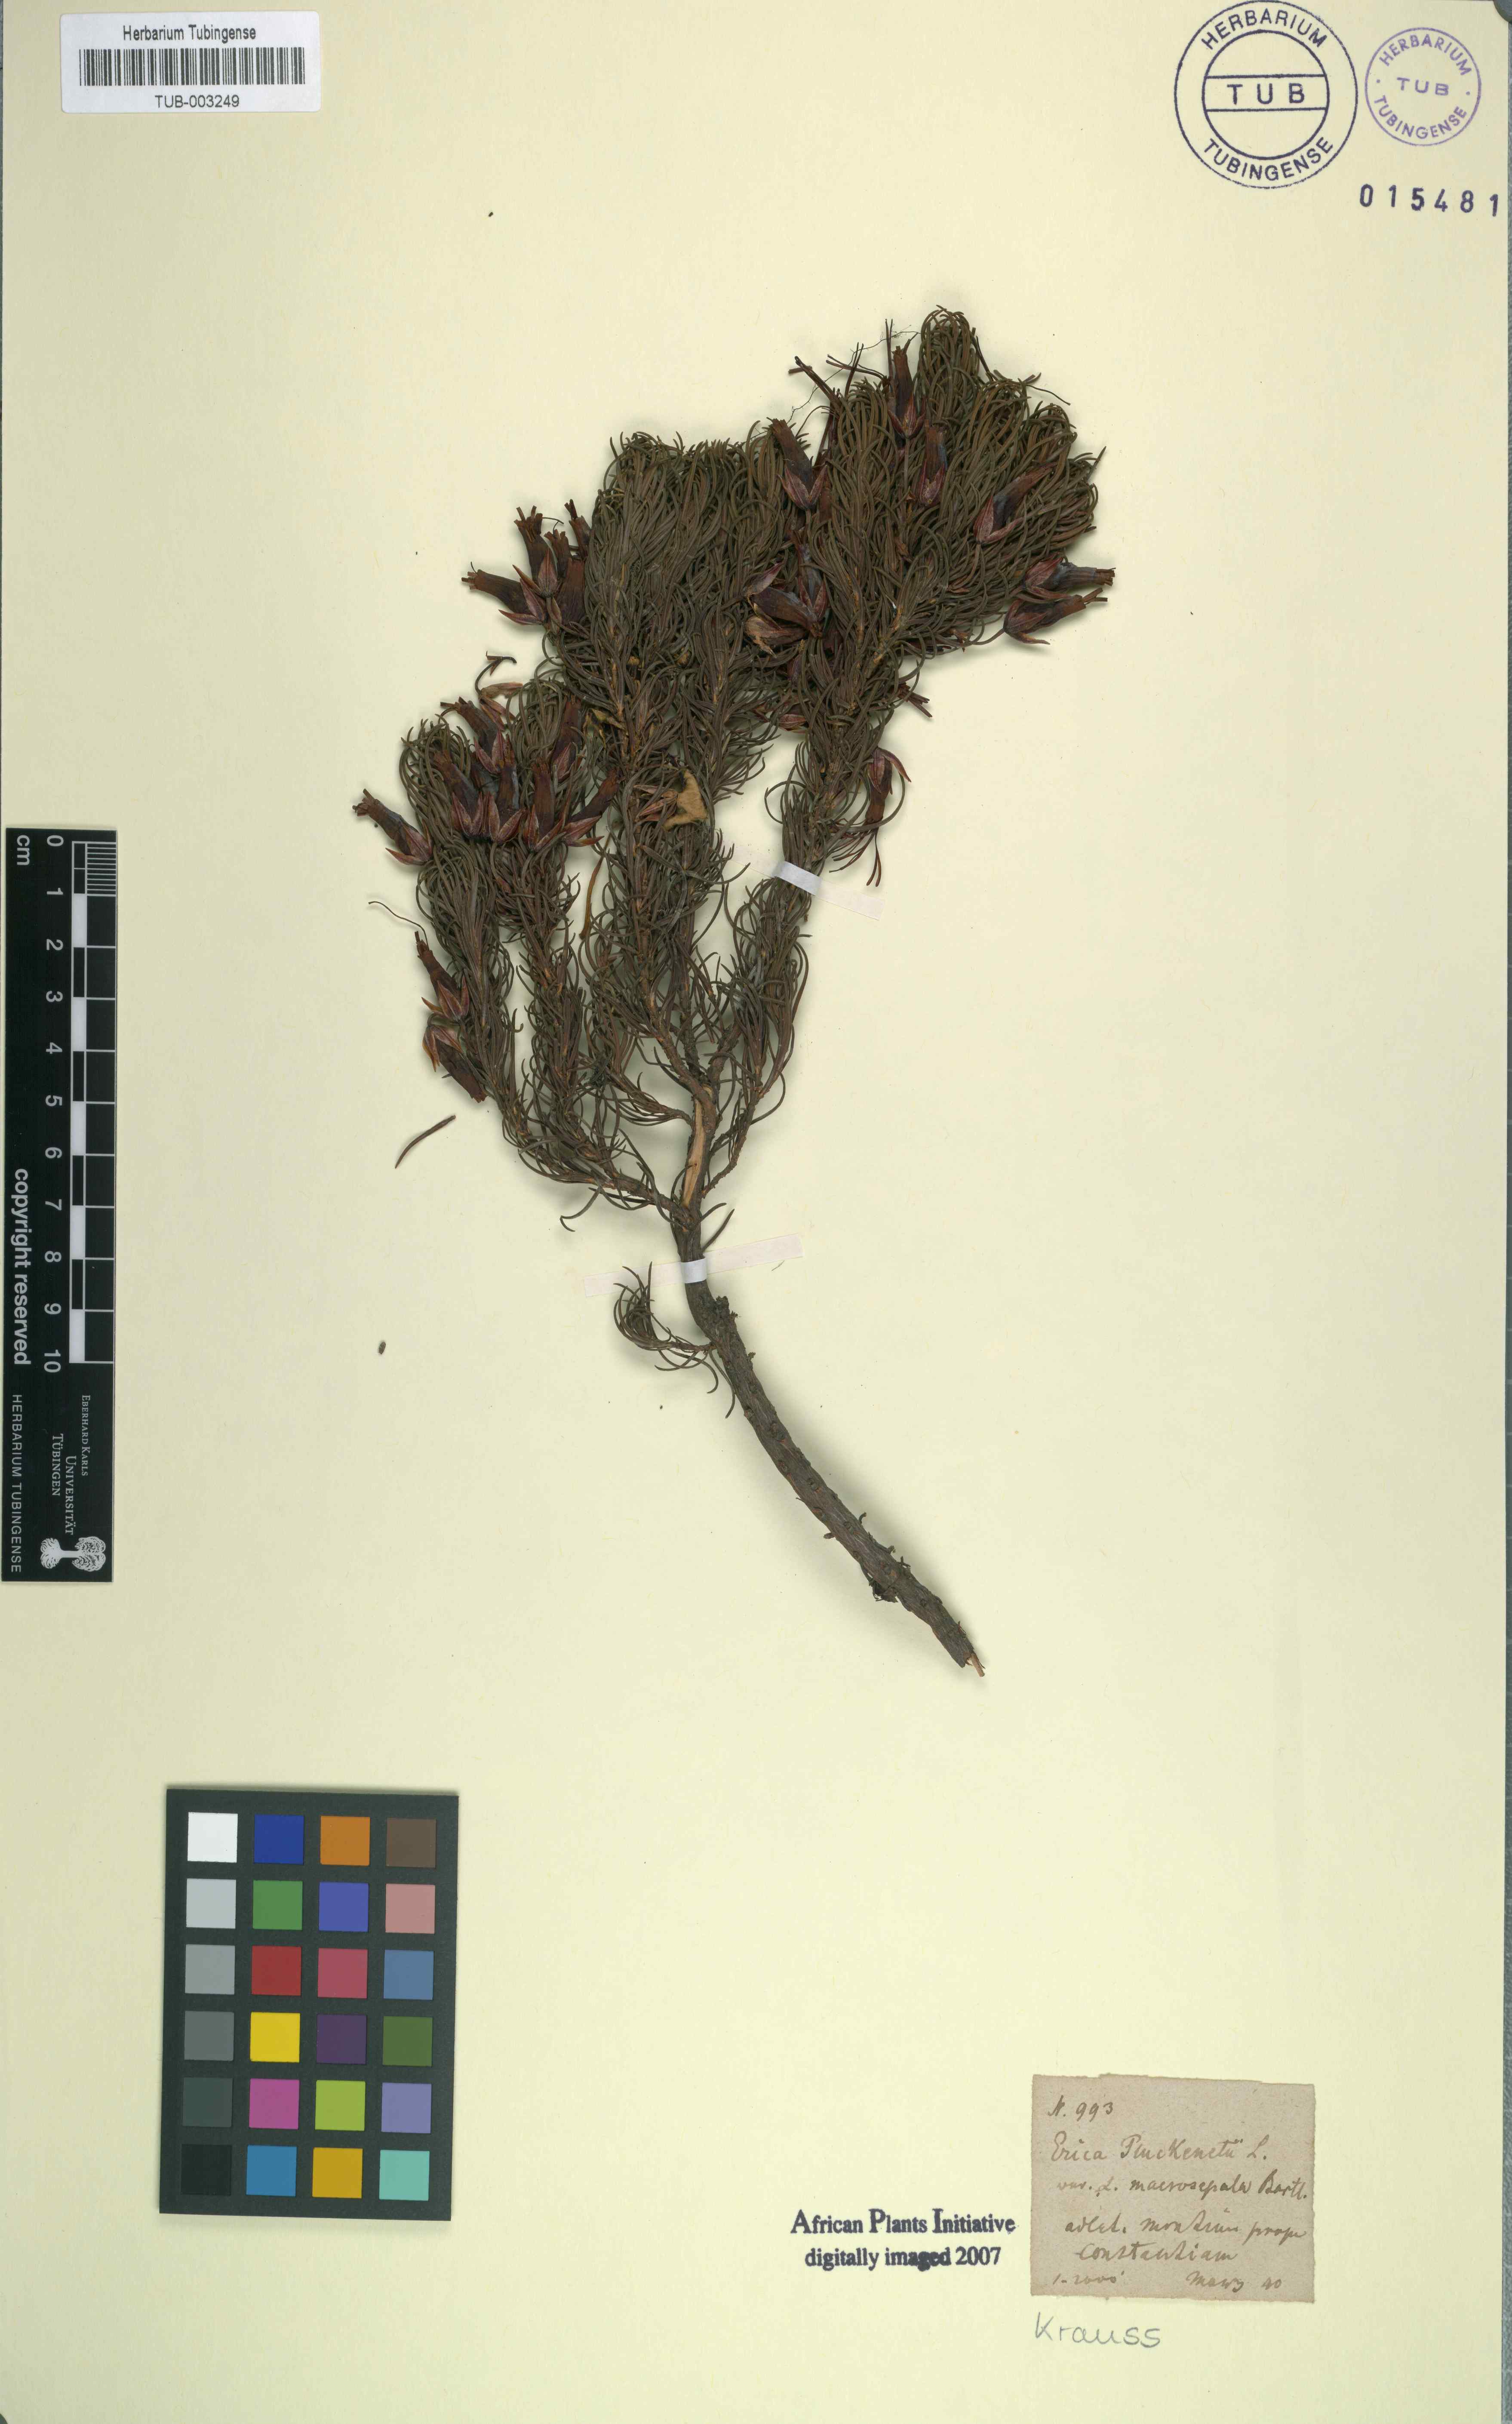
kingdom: Plantae
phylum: Tracheophyta
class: Magnoliopsida
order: Ericales
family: Ericaceae
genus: Erica
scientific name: Erica coccinea
